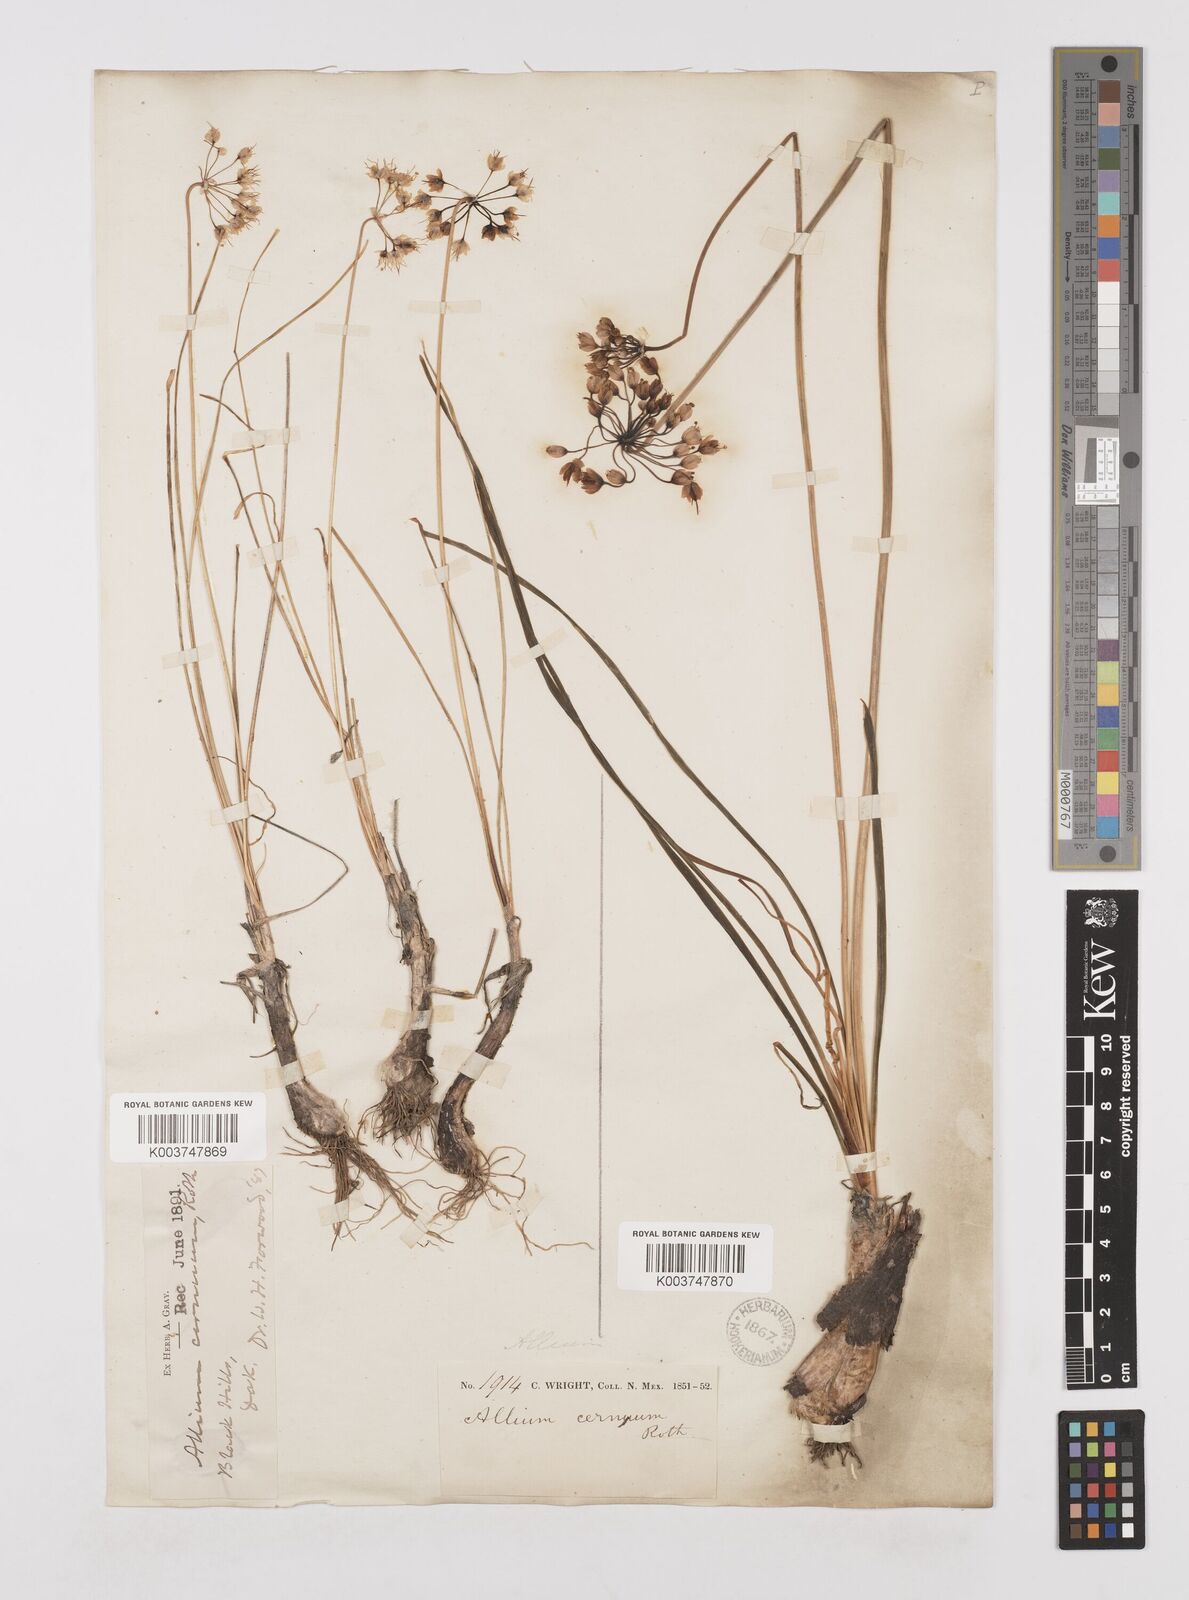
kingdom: Plantae
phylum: Tracheophyta
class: Liliopsida
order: Asparagales
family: Amaryllidaceae
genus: Allium
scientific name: Allium cernuum
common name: Nodding onion
